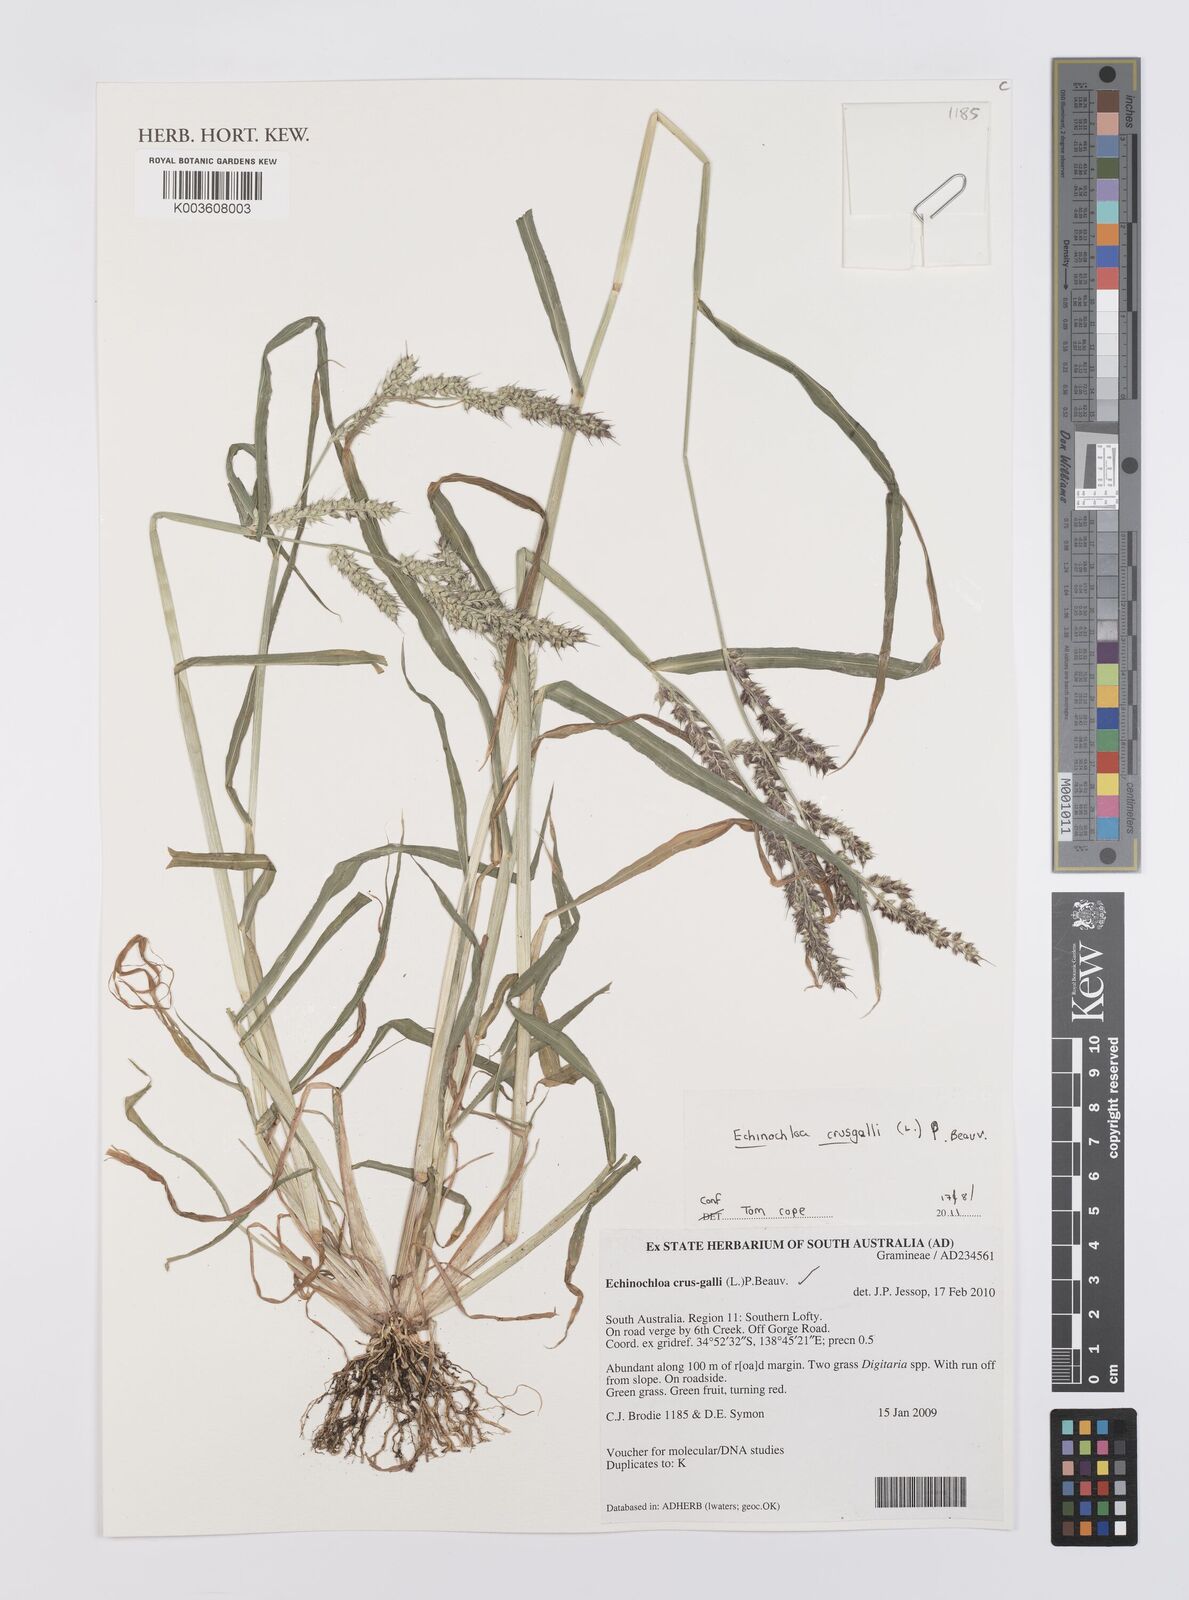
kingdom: Plantae
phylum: Tracheophyta
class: Liliopsida
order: Poales
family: Poaceae
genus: Echinochloa
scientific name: Echinochloa crus-galli
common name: Cockspur
